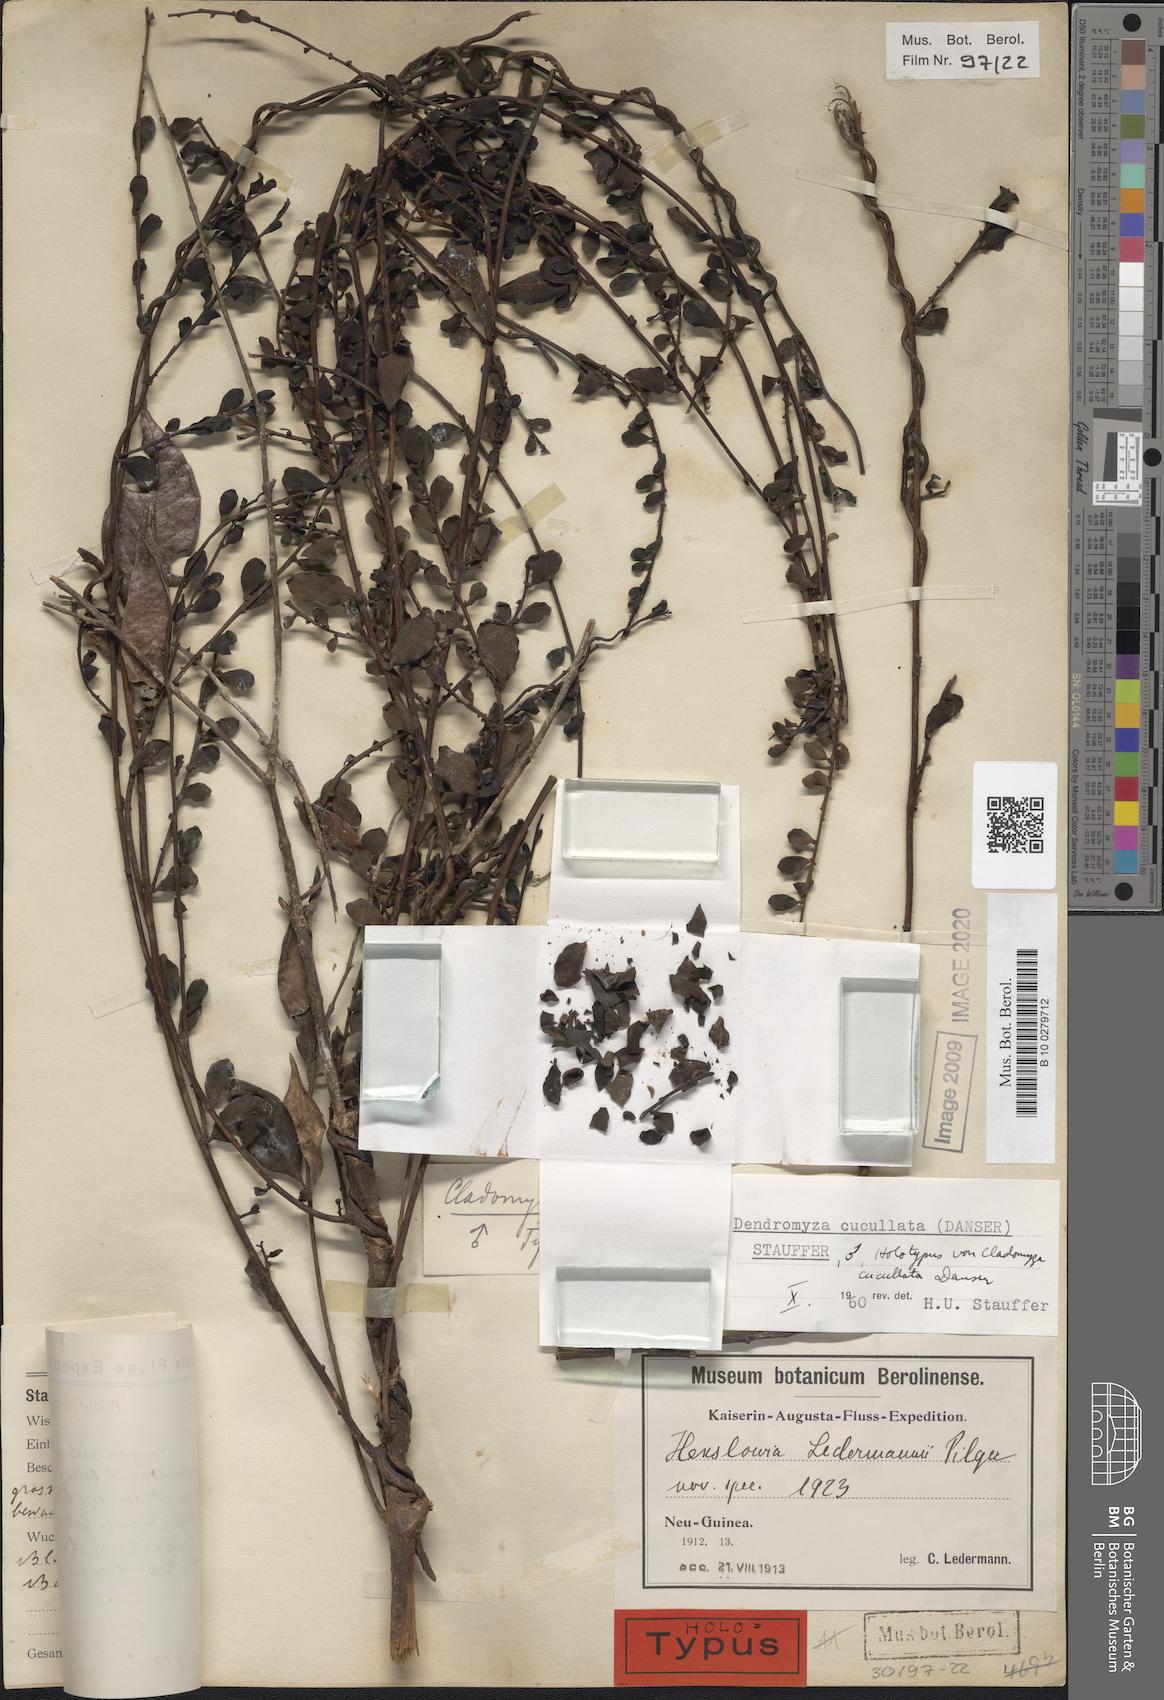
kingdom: Plantae
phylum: Tracheophyta
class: Magnoliopsida
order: Santalales
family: Amphorogynaceae
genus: Dendromyza
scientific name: Dendromyza cucullata
